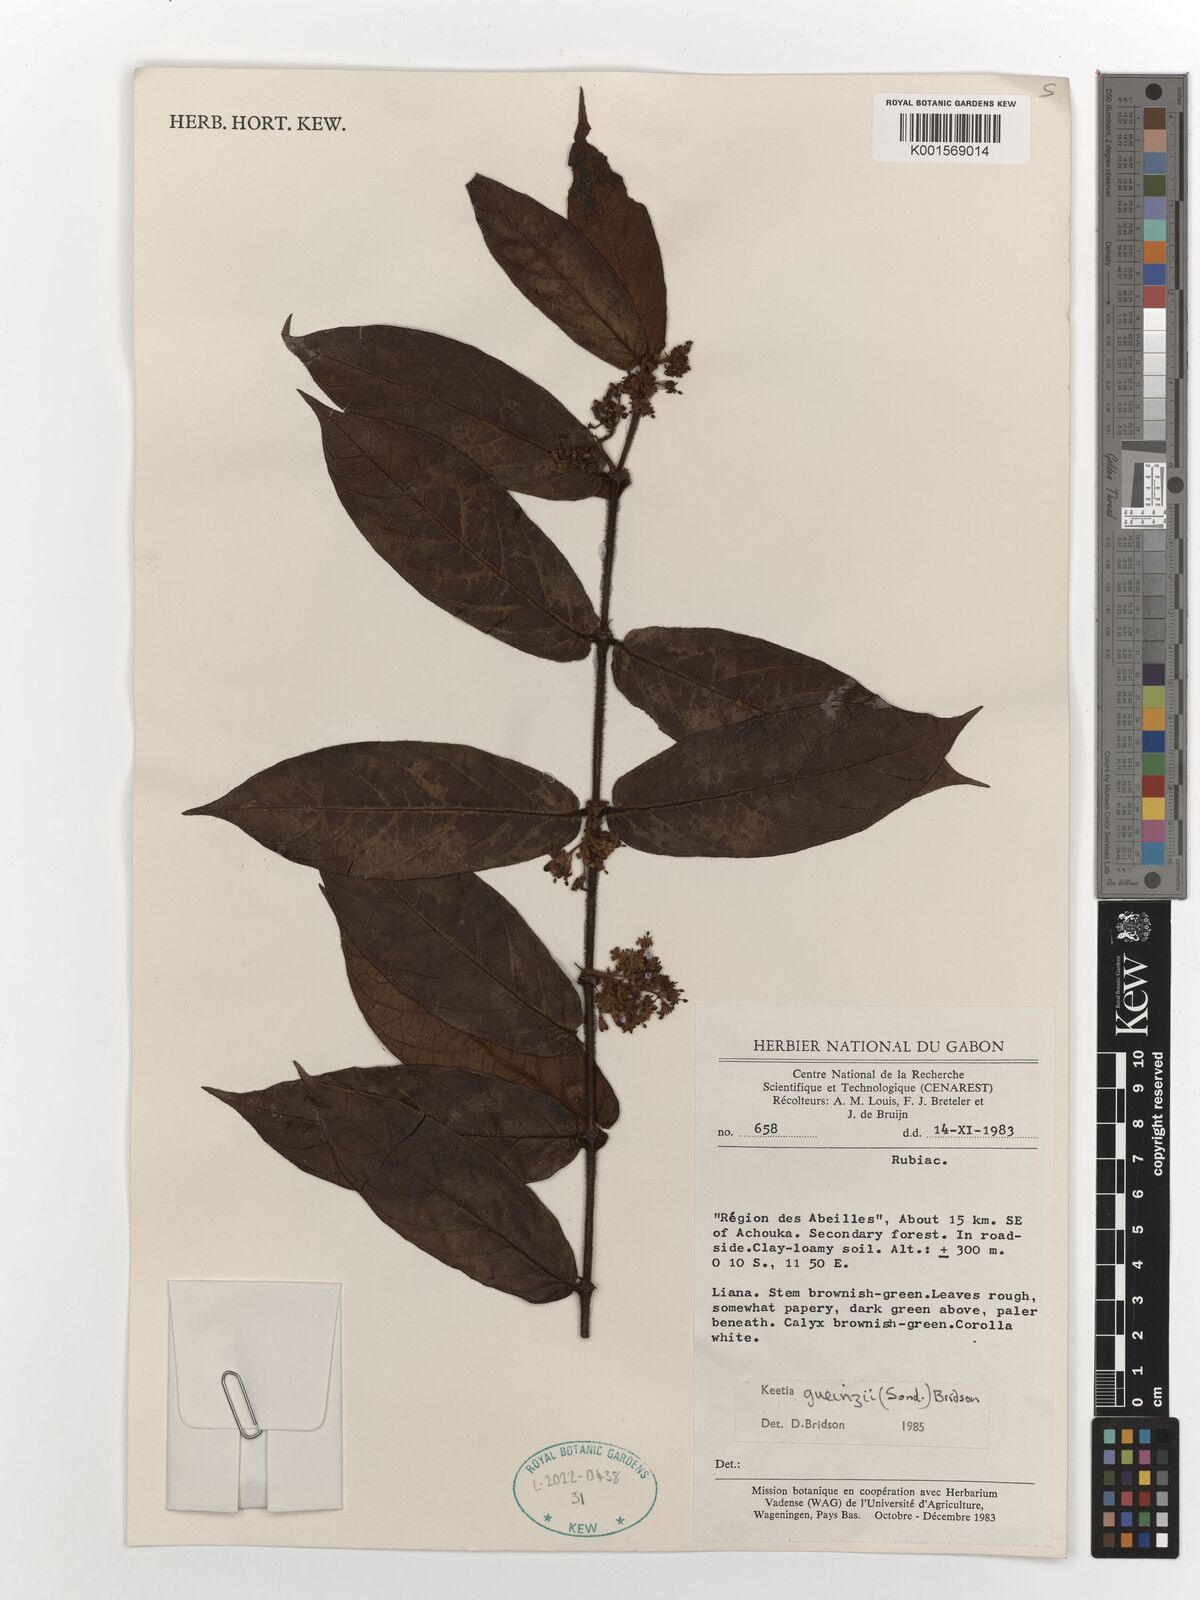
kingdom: Plantae
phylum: Tracheophyta
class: Magnoliopsida
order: Gentianales
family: Rubiaceae
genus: Keetia
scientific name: Keetia gueinzii
